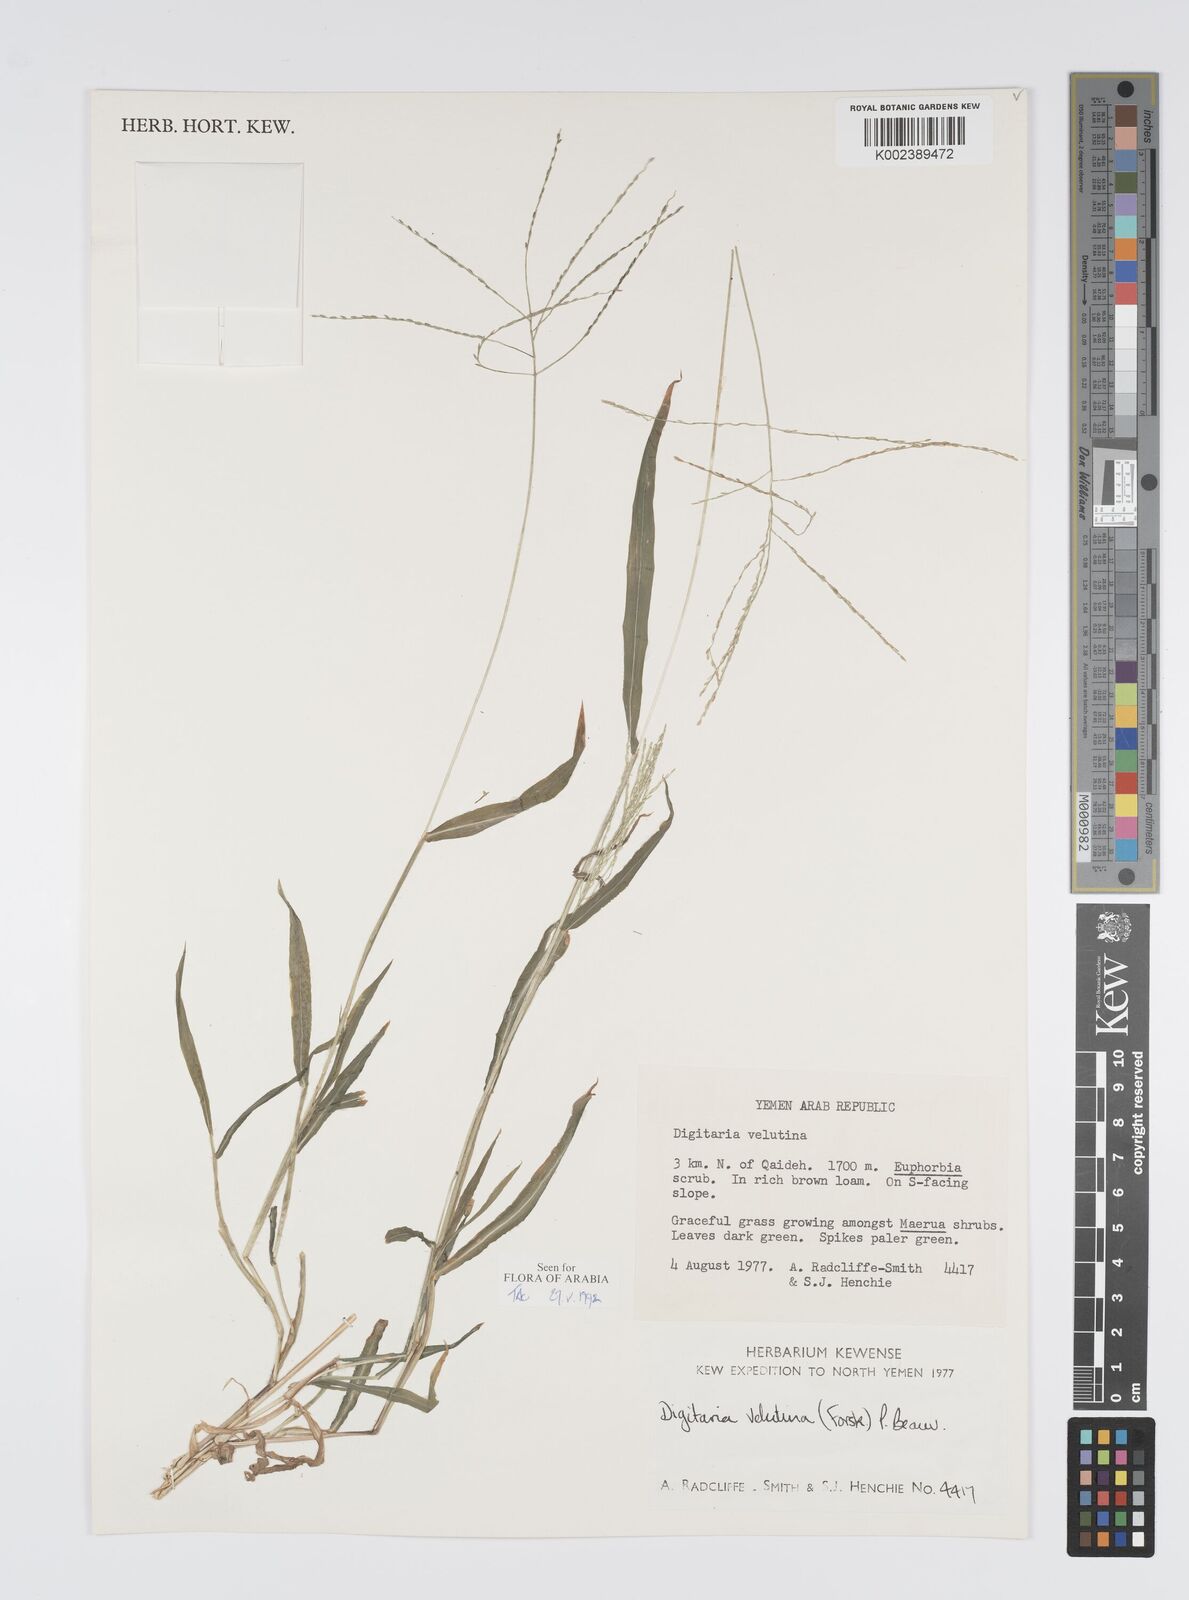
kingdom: Plantae
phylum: Tracheophyta
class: Liliopsida
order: Poales
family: Poaceae
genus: Digitaria
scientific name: Digitaria velutina
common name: Long-plume finger grass
